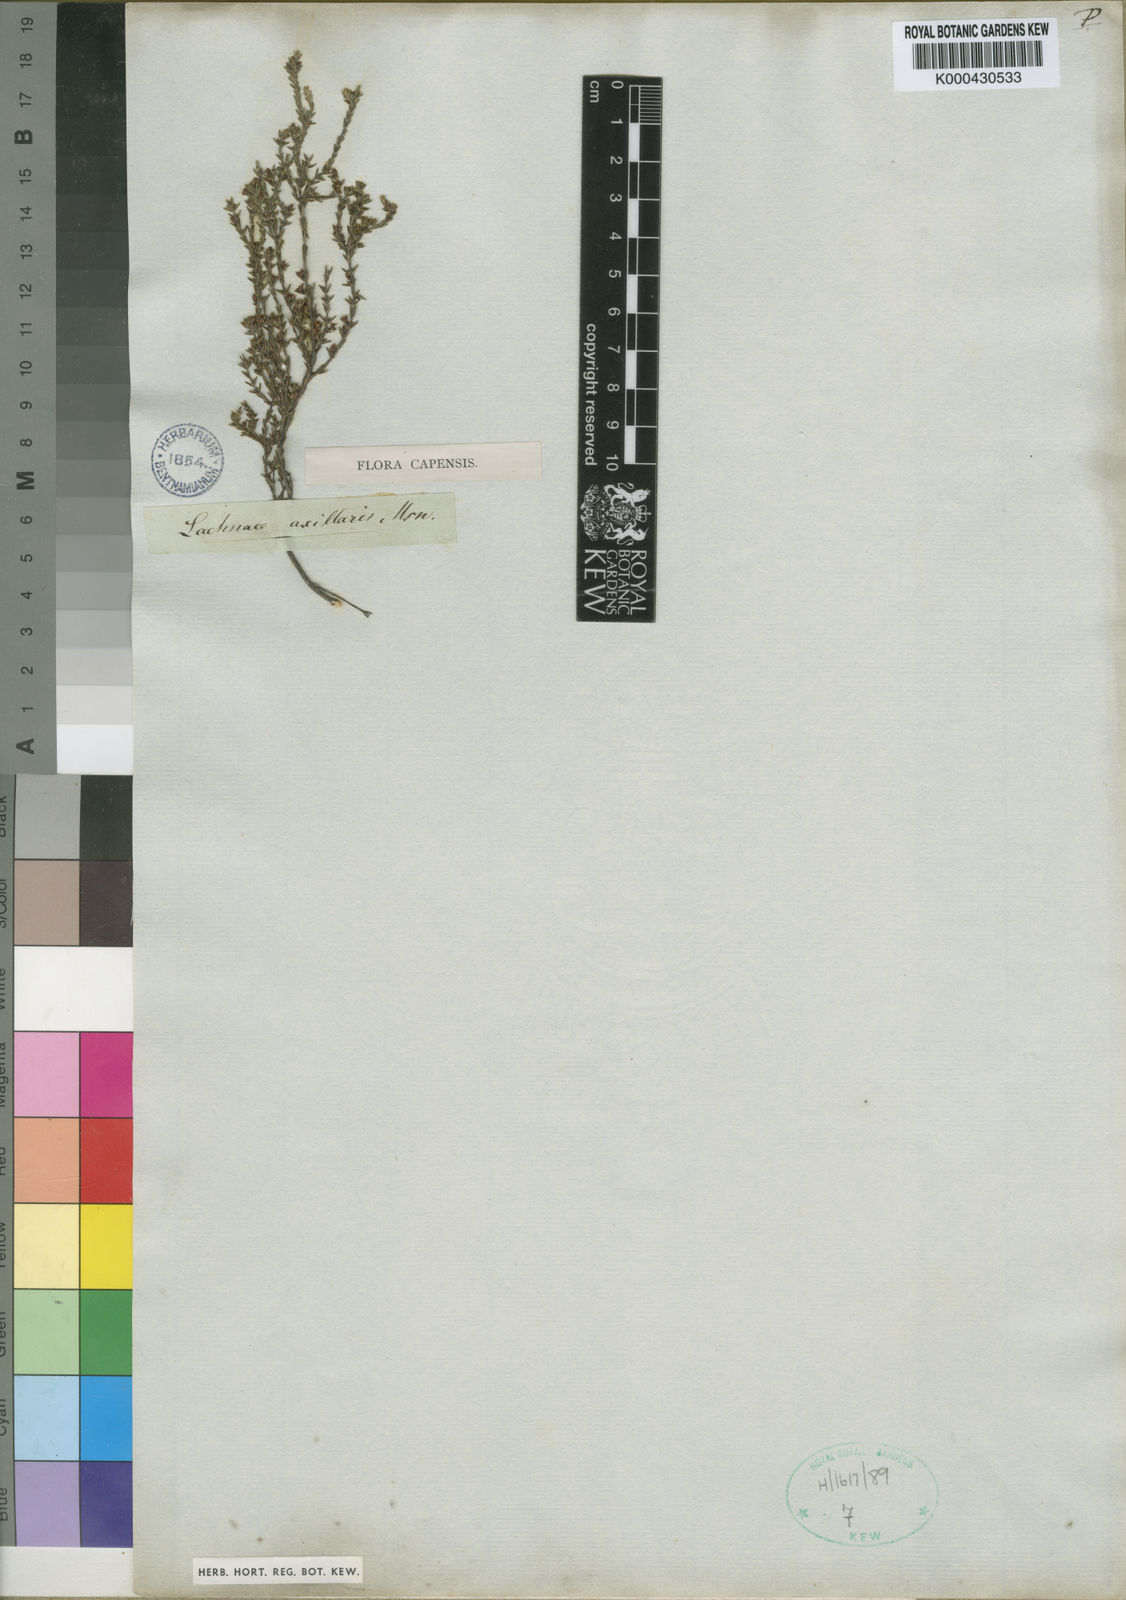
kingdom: Plantae
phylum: Tracheophyta
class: Magnoliopsida
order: Malvales
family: Thymelaeaceae
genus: Lachnaea
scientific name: Lachnaea axillaris
